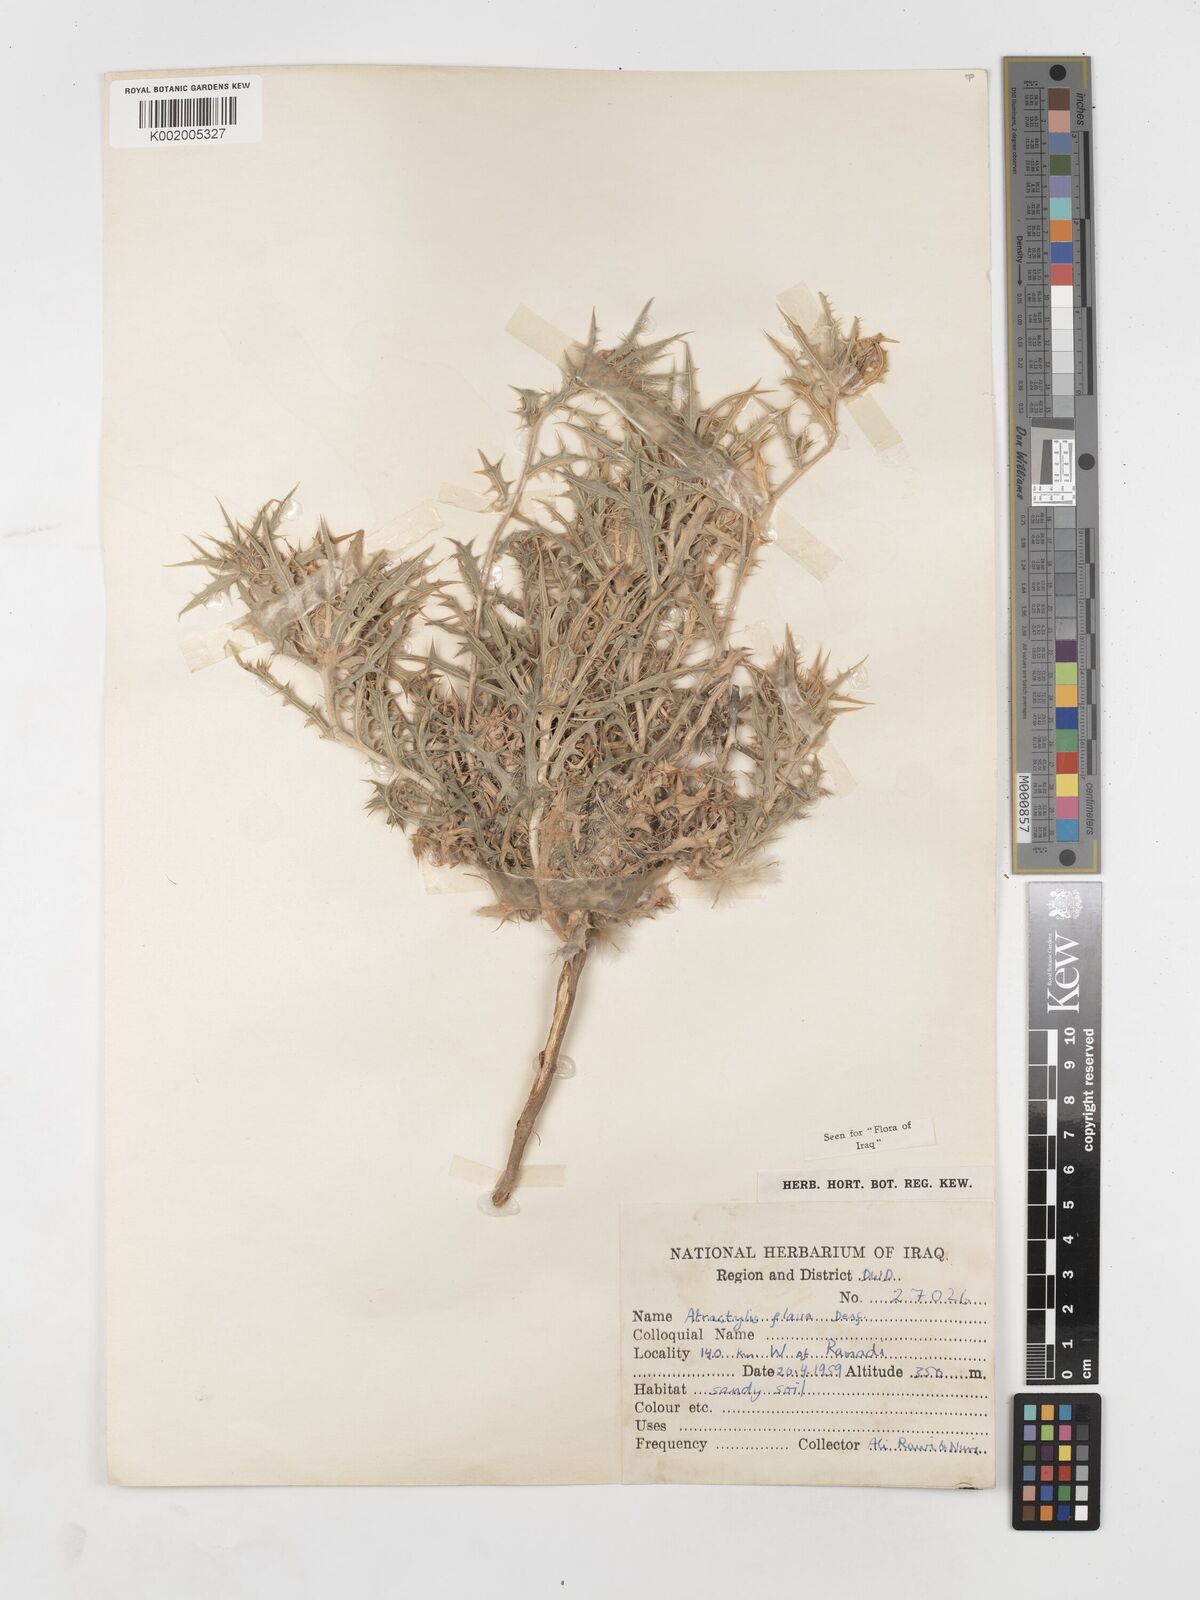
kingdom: Plantae
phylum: Tracheophyta
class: Magnoliopsida
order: Asterales
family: Asteraceae
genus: Atractylis
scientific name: Atractylis carduus
